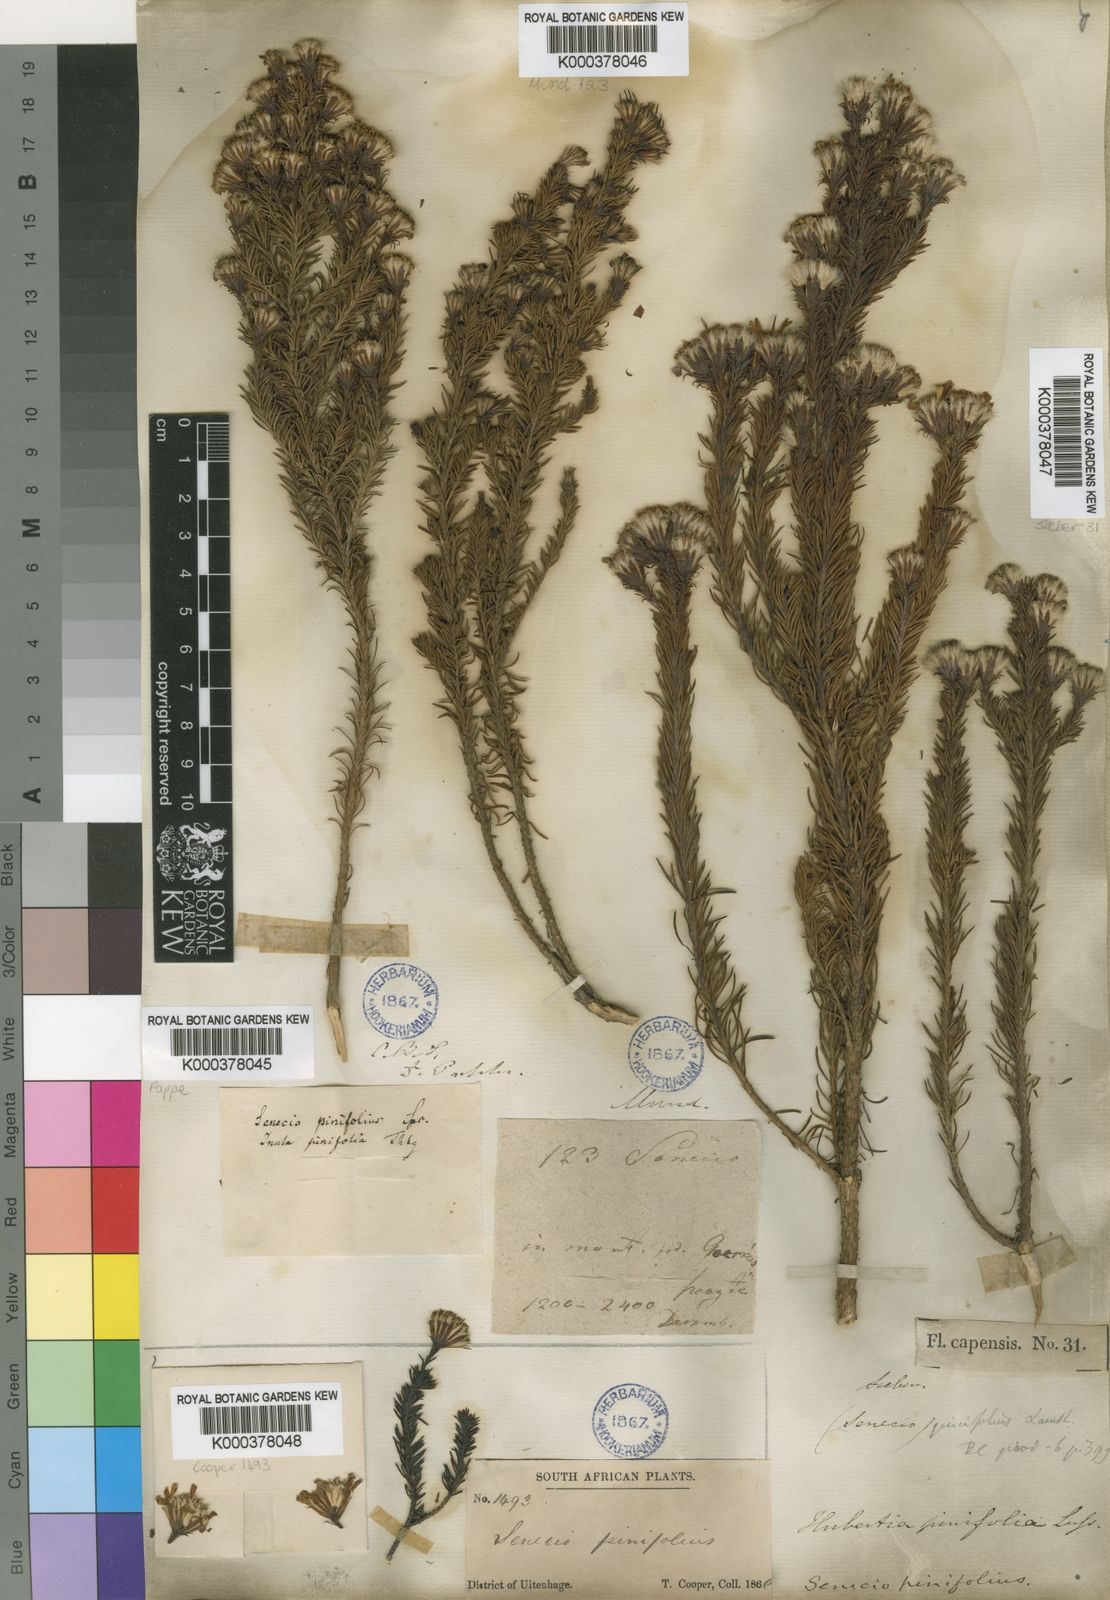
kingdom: Plantae
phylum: Tracheophyta
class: Magnoliopsida
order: Asterales
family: Asteraceae
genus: Senecio
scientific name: Senecio pinifolius
